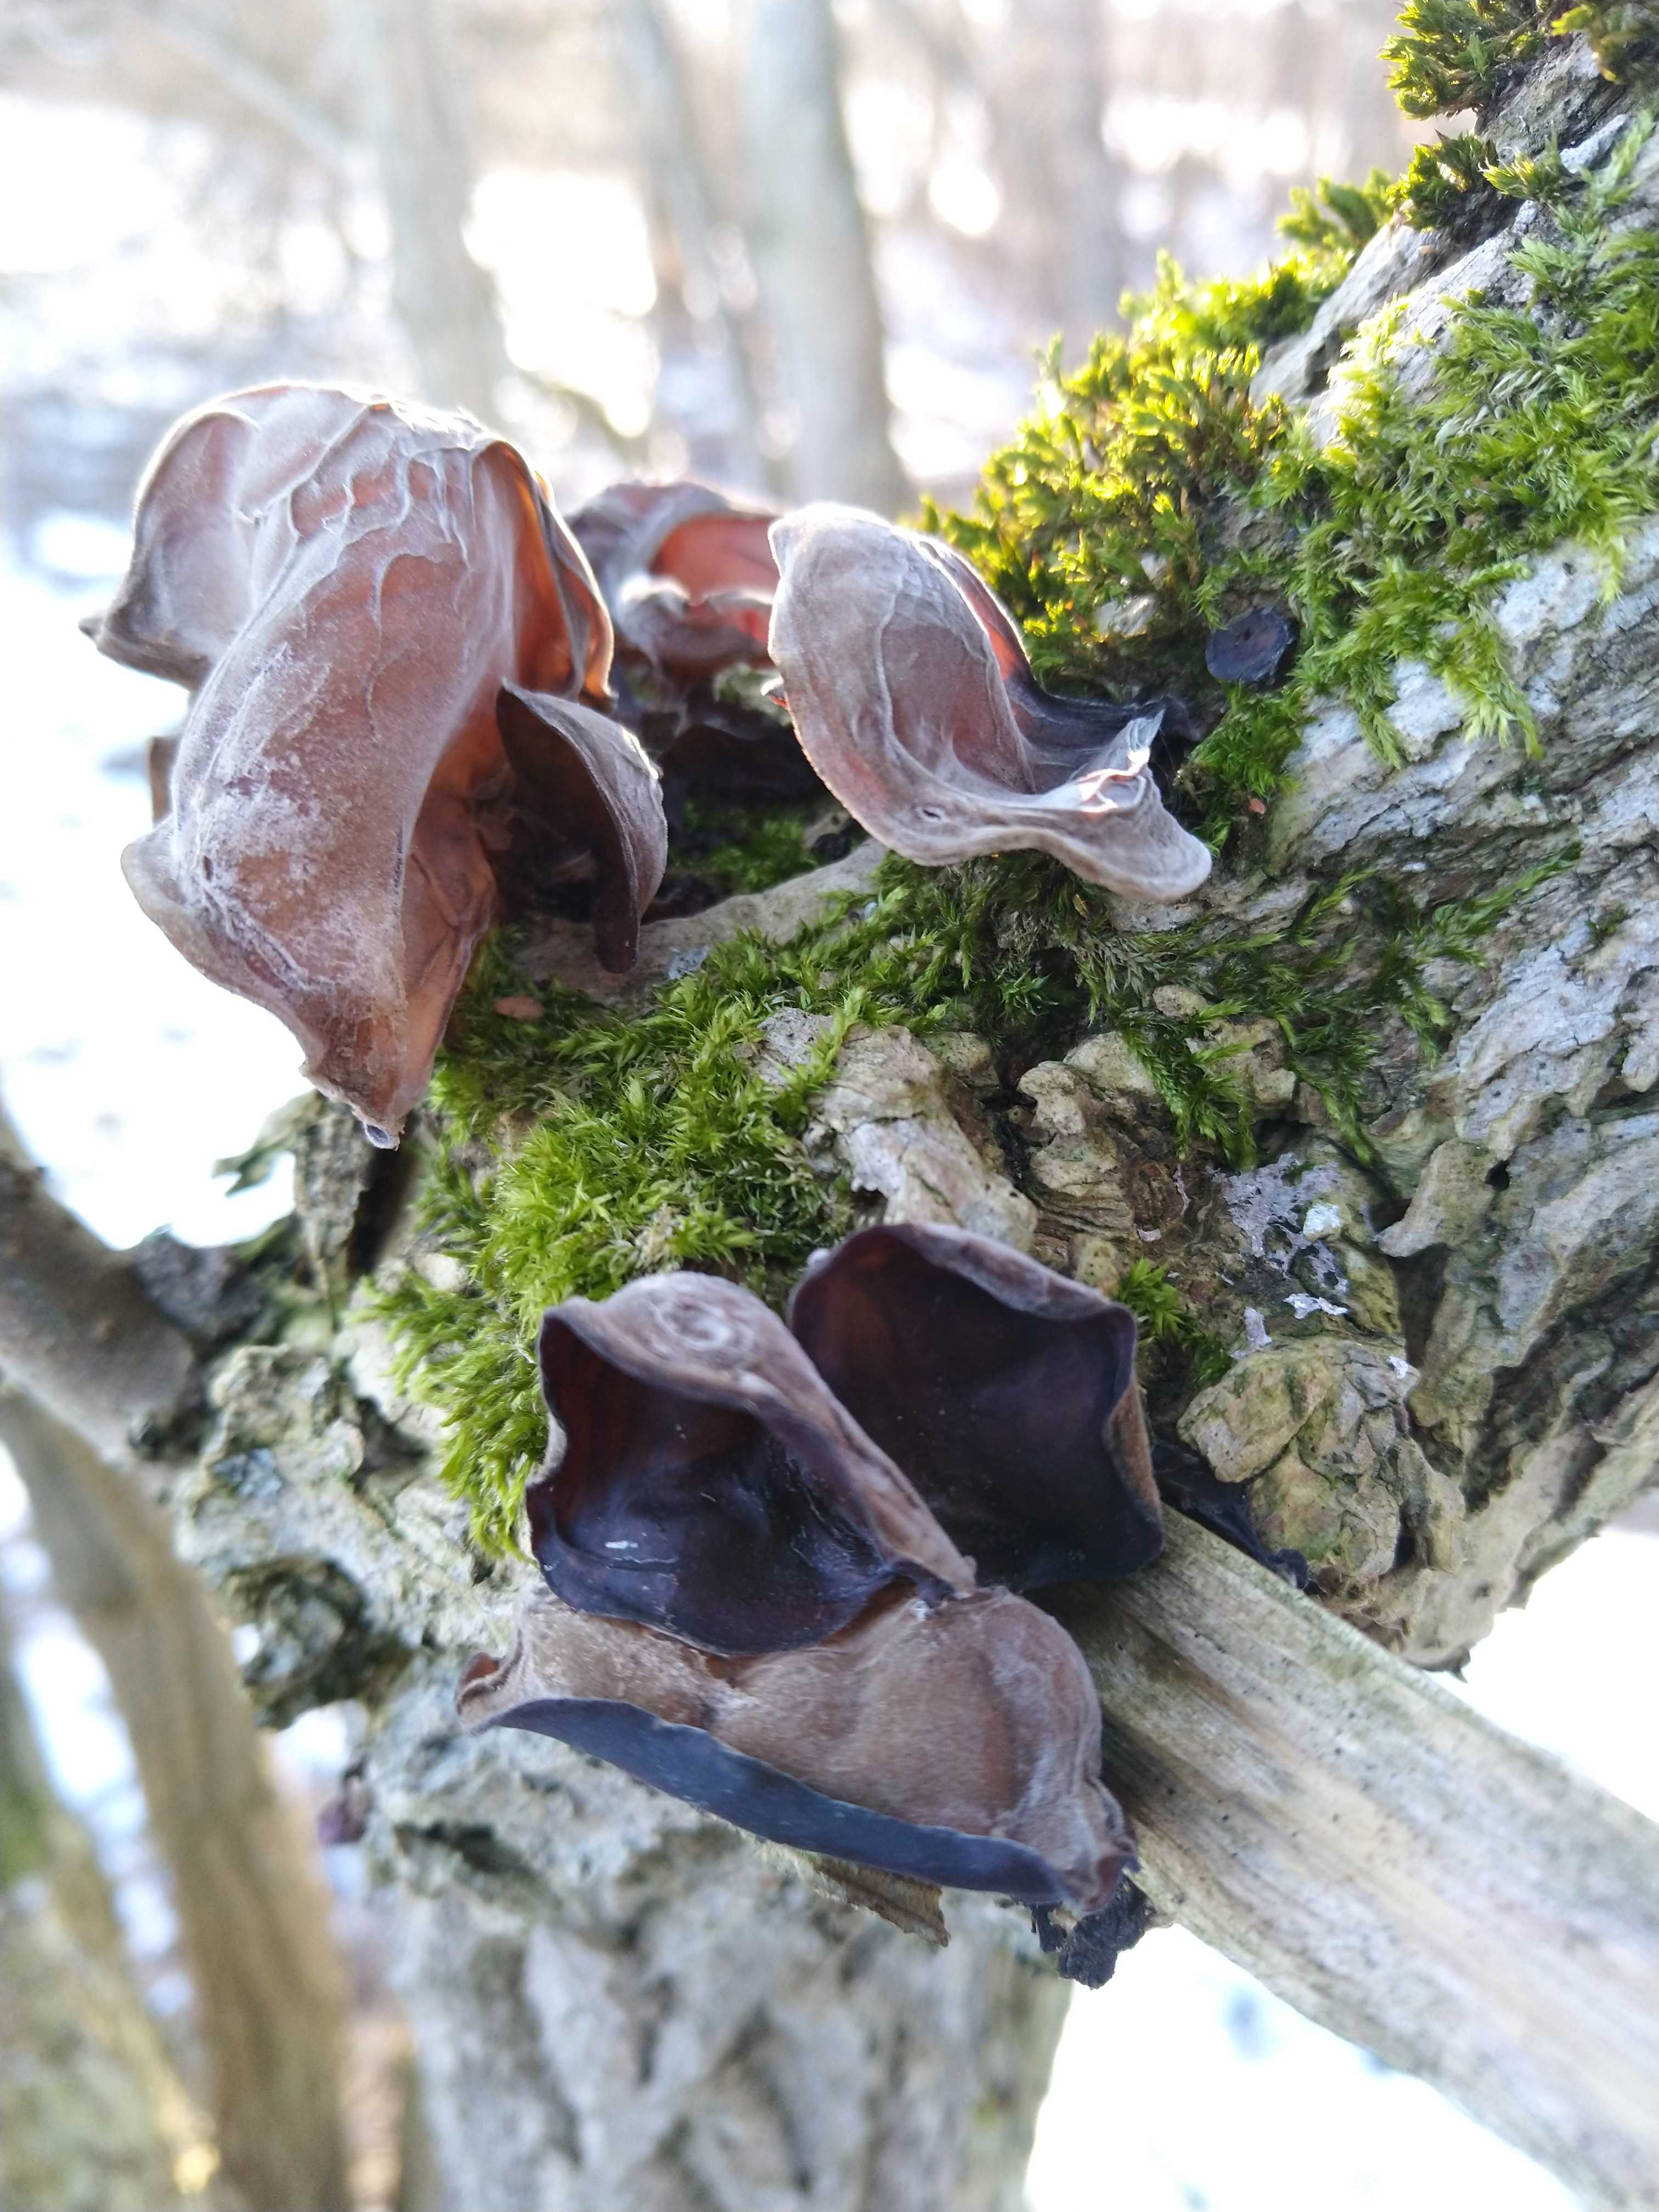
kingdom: Fungi
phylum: Basidiomycota
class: Agaricomycetes
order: Auriculariales
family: Auriculariaceae
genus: Auricularia
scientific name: Auricularia auricula-judae
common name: almindelig judasøre
